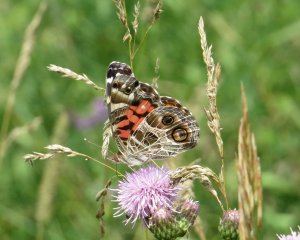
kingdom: Animalia
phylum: Arthropoda
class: Insecta
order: Lepidoptera
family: Nymphalidae
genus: Vanessa
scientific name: Vanessa virginiensis
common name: American Lady
